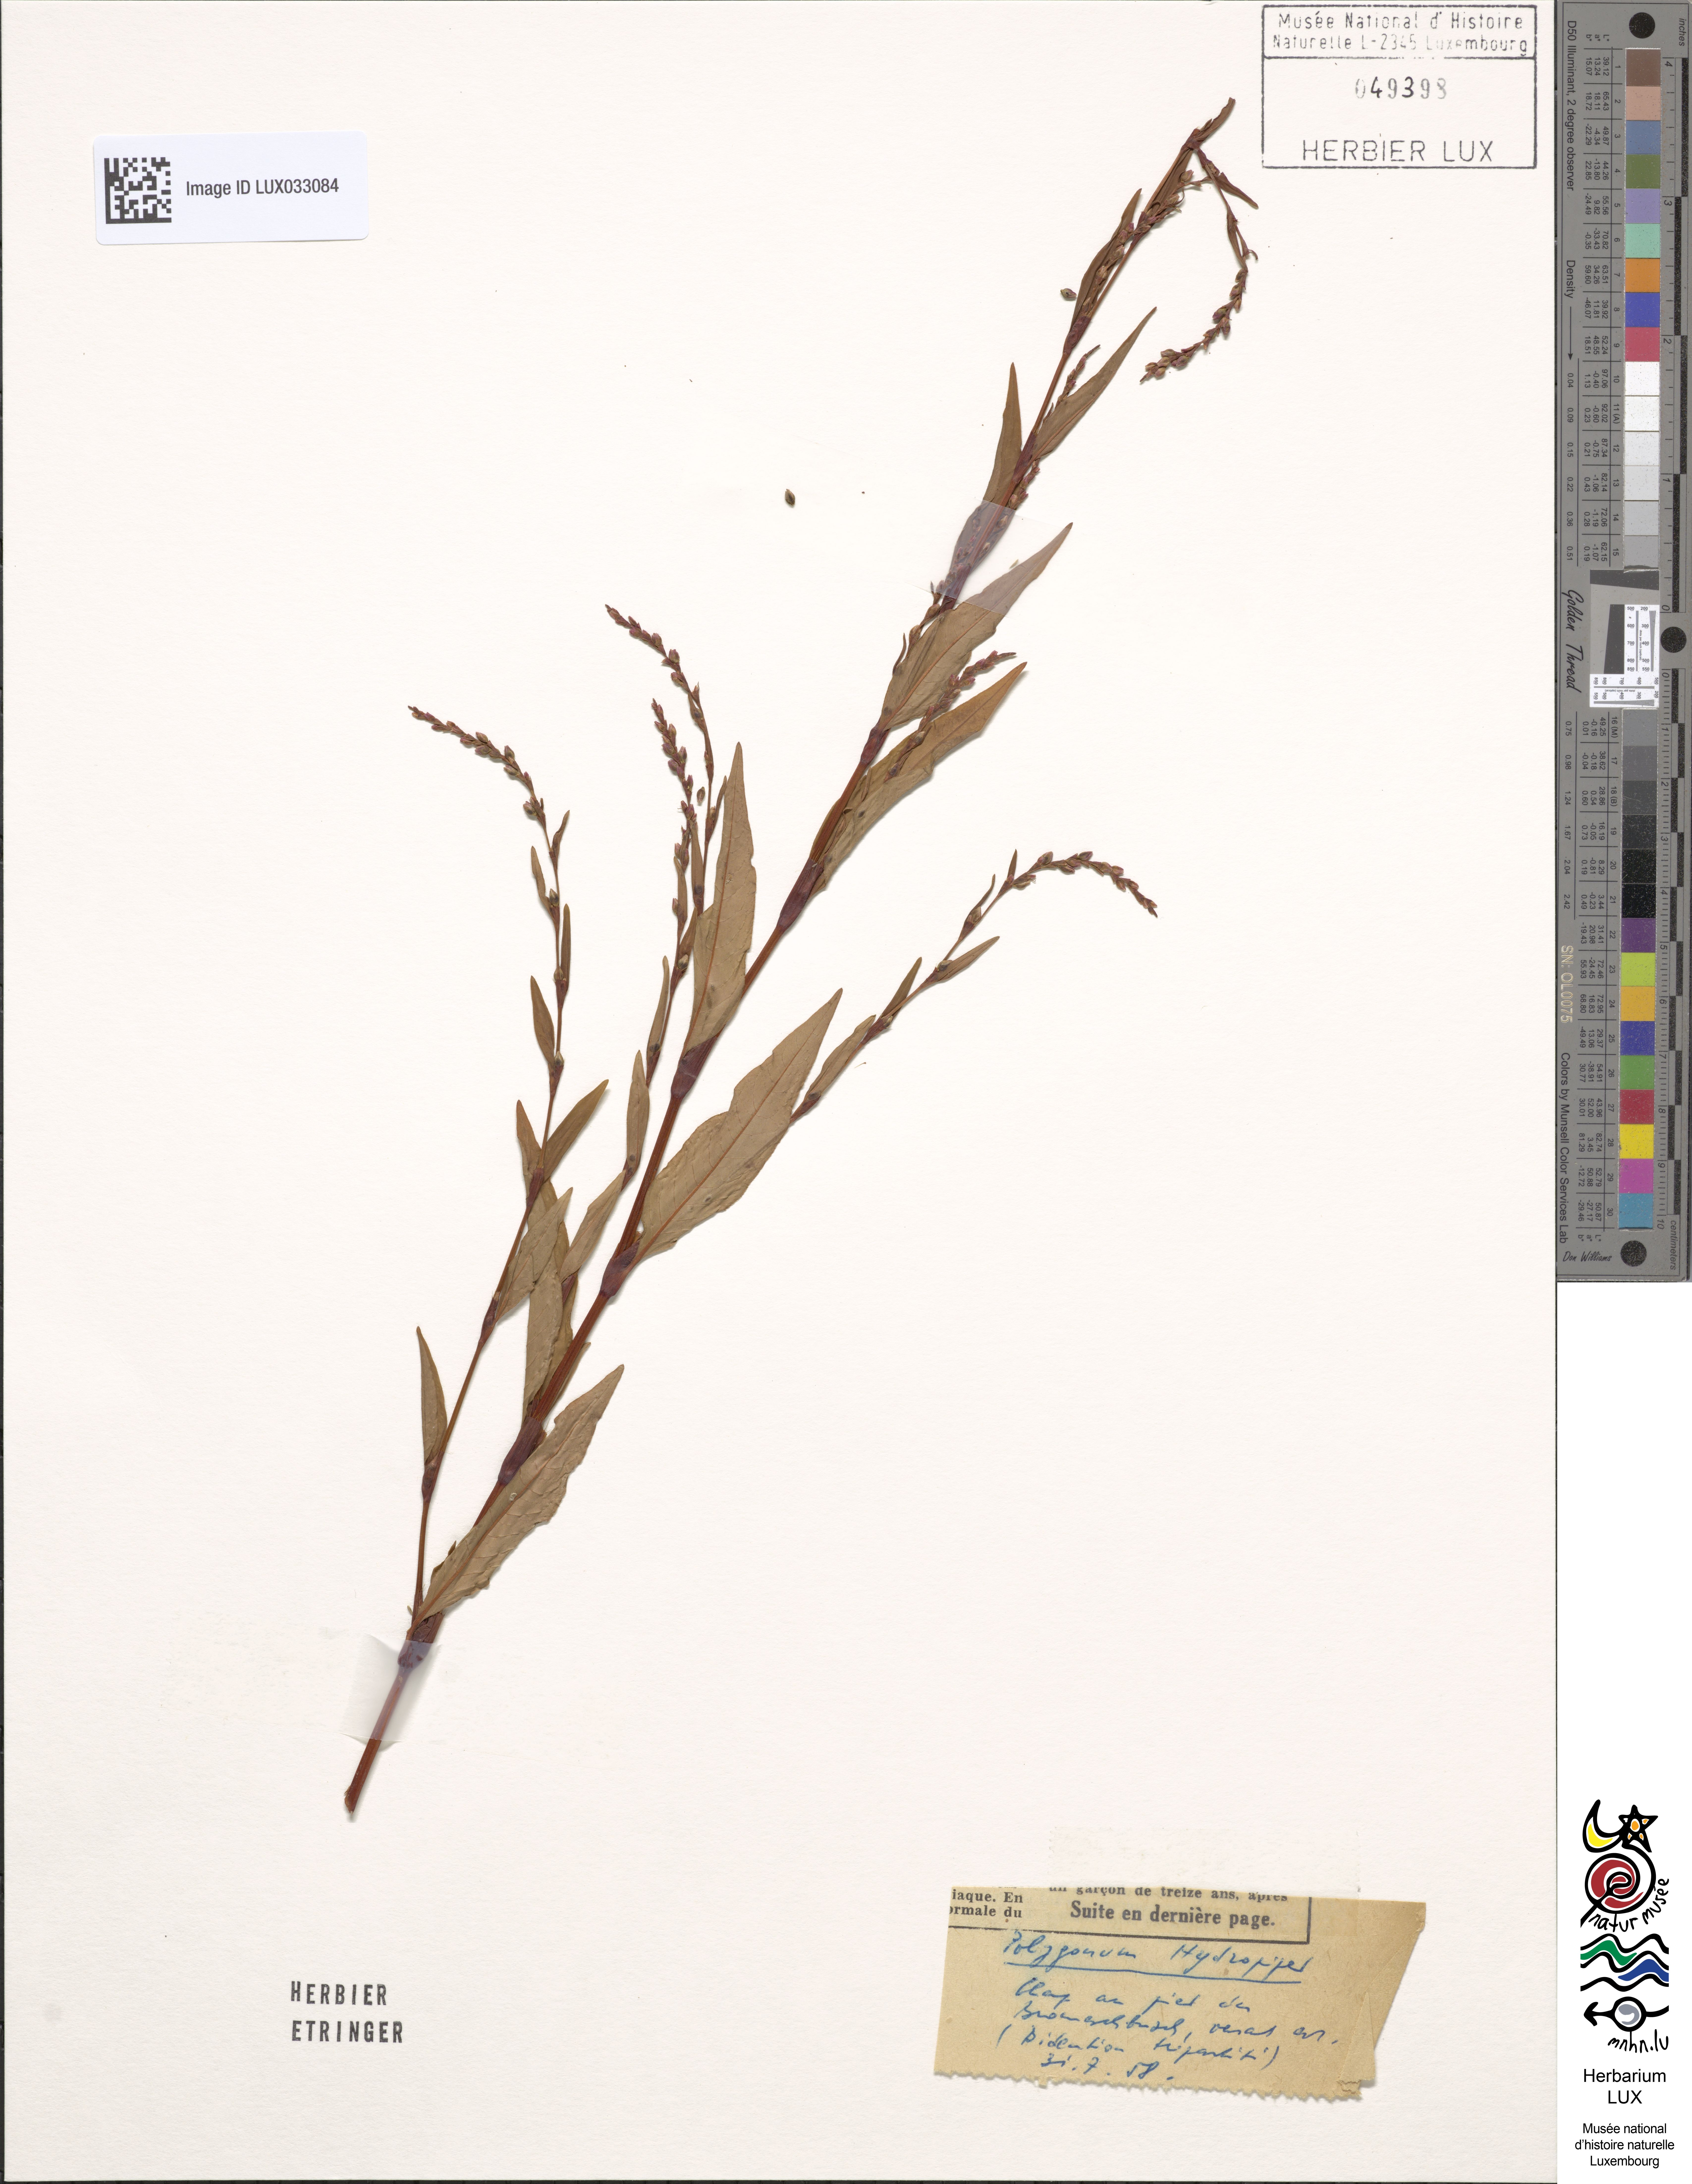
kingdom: Plantae
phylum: Tracheophyta
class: Magnoliopsida
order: Caryophyllales
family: Polygonaceae
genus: Persicaria
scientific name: Persicaria hydropiper
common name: Water-pepper
